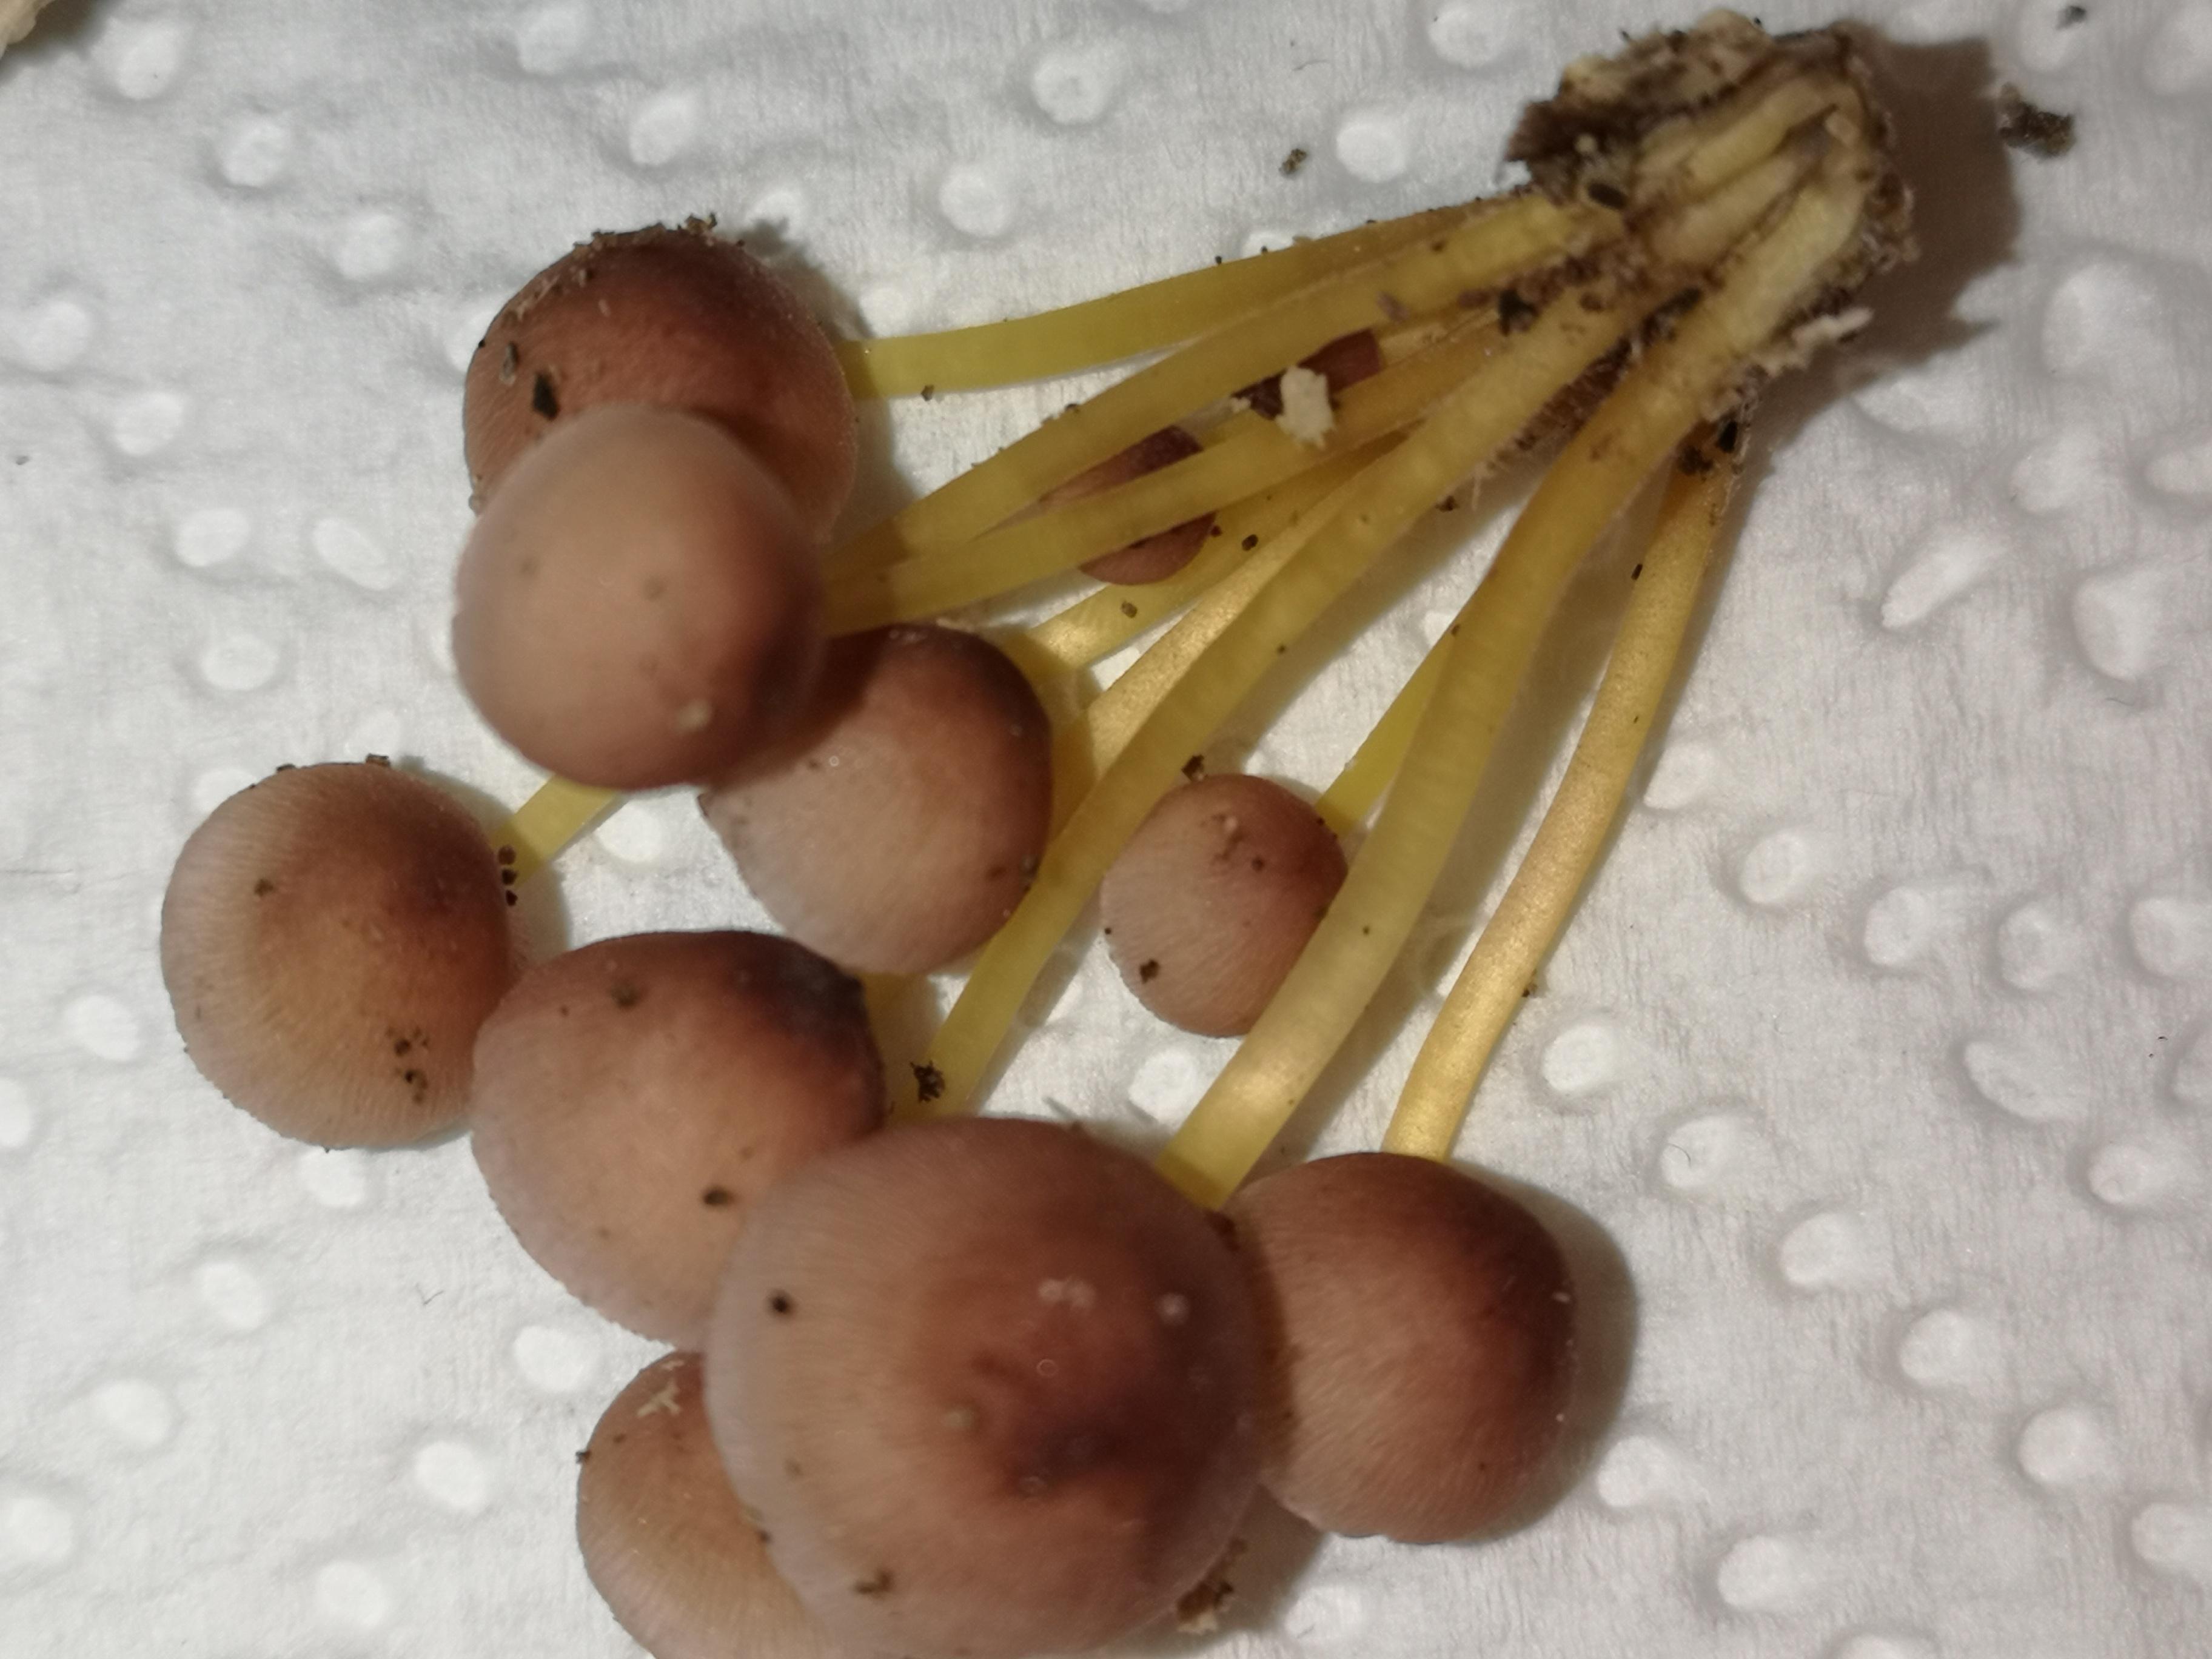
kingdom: Fungi
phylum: Basidiomycota
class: Agaricomycetes
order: Agaricales
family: Mycenaceae
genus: Mycena
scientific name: Mycena renati
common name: smuk huesvamp
